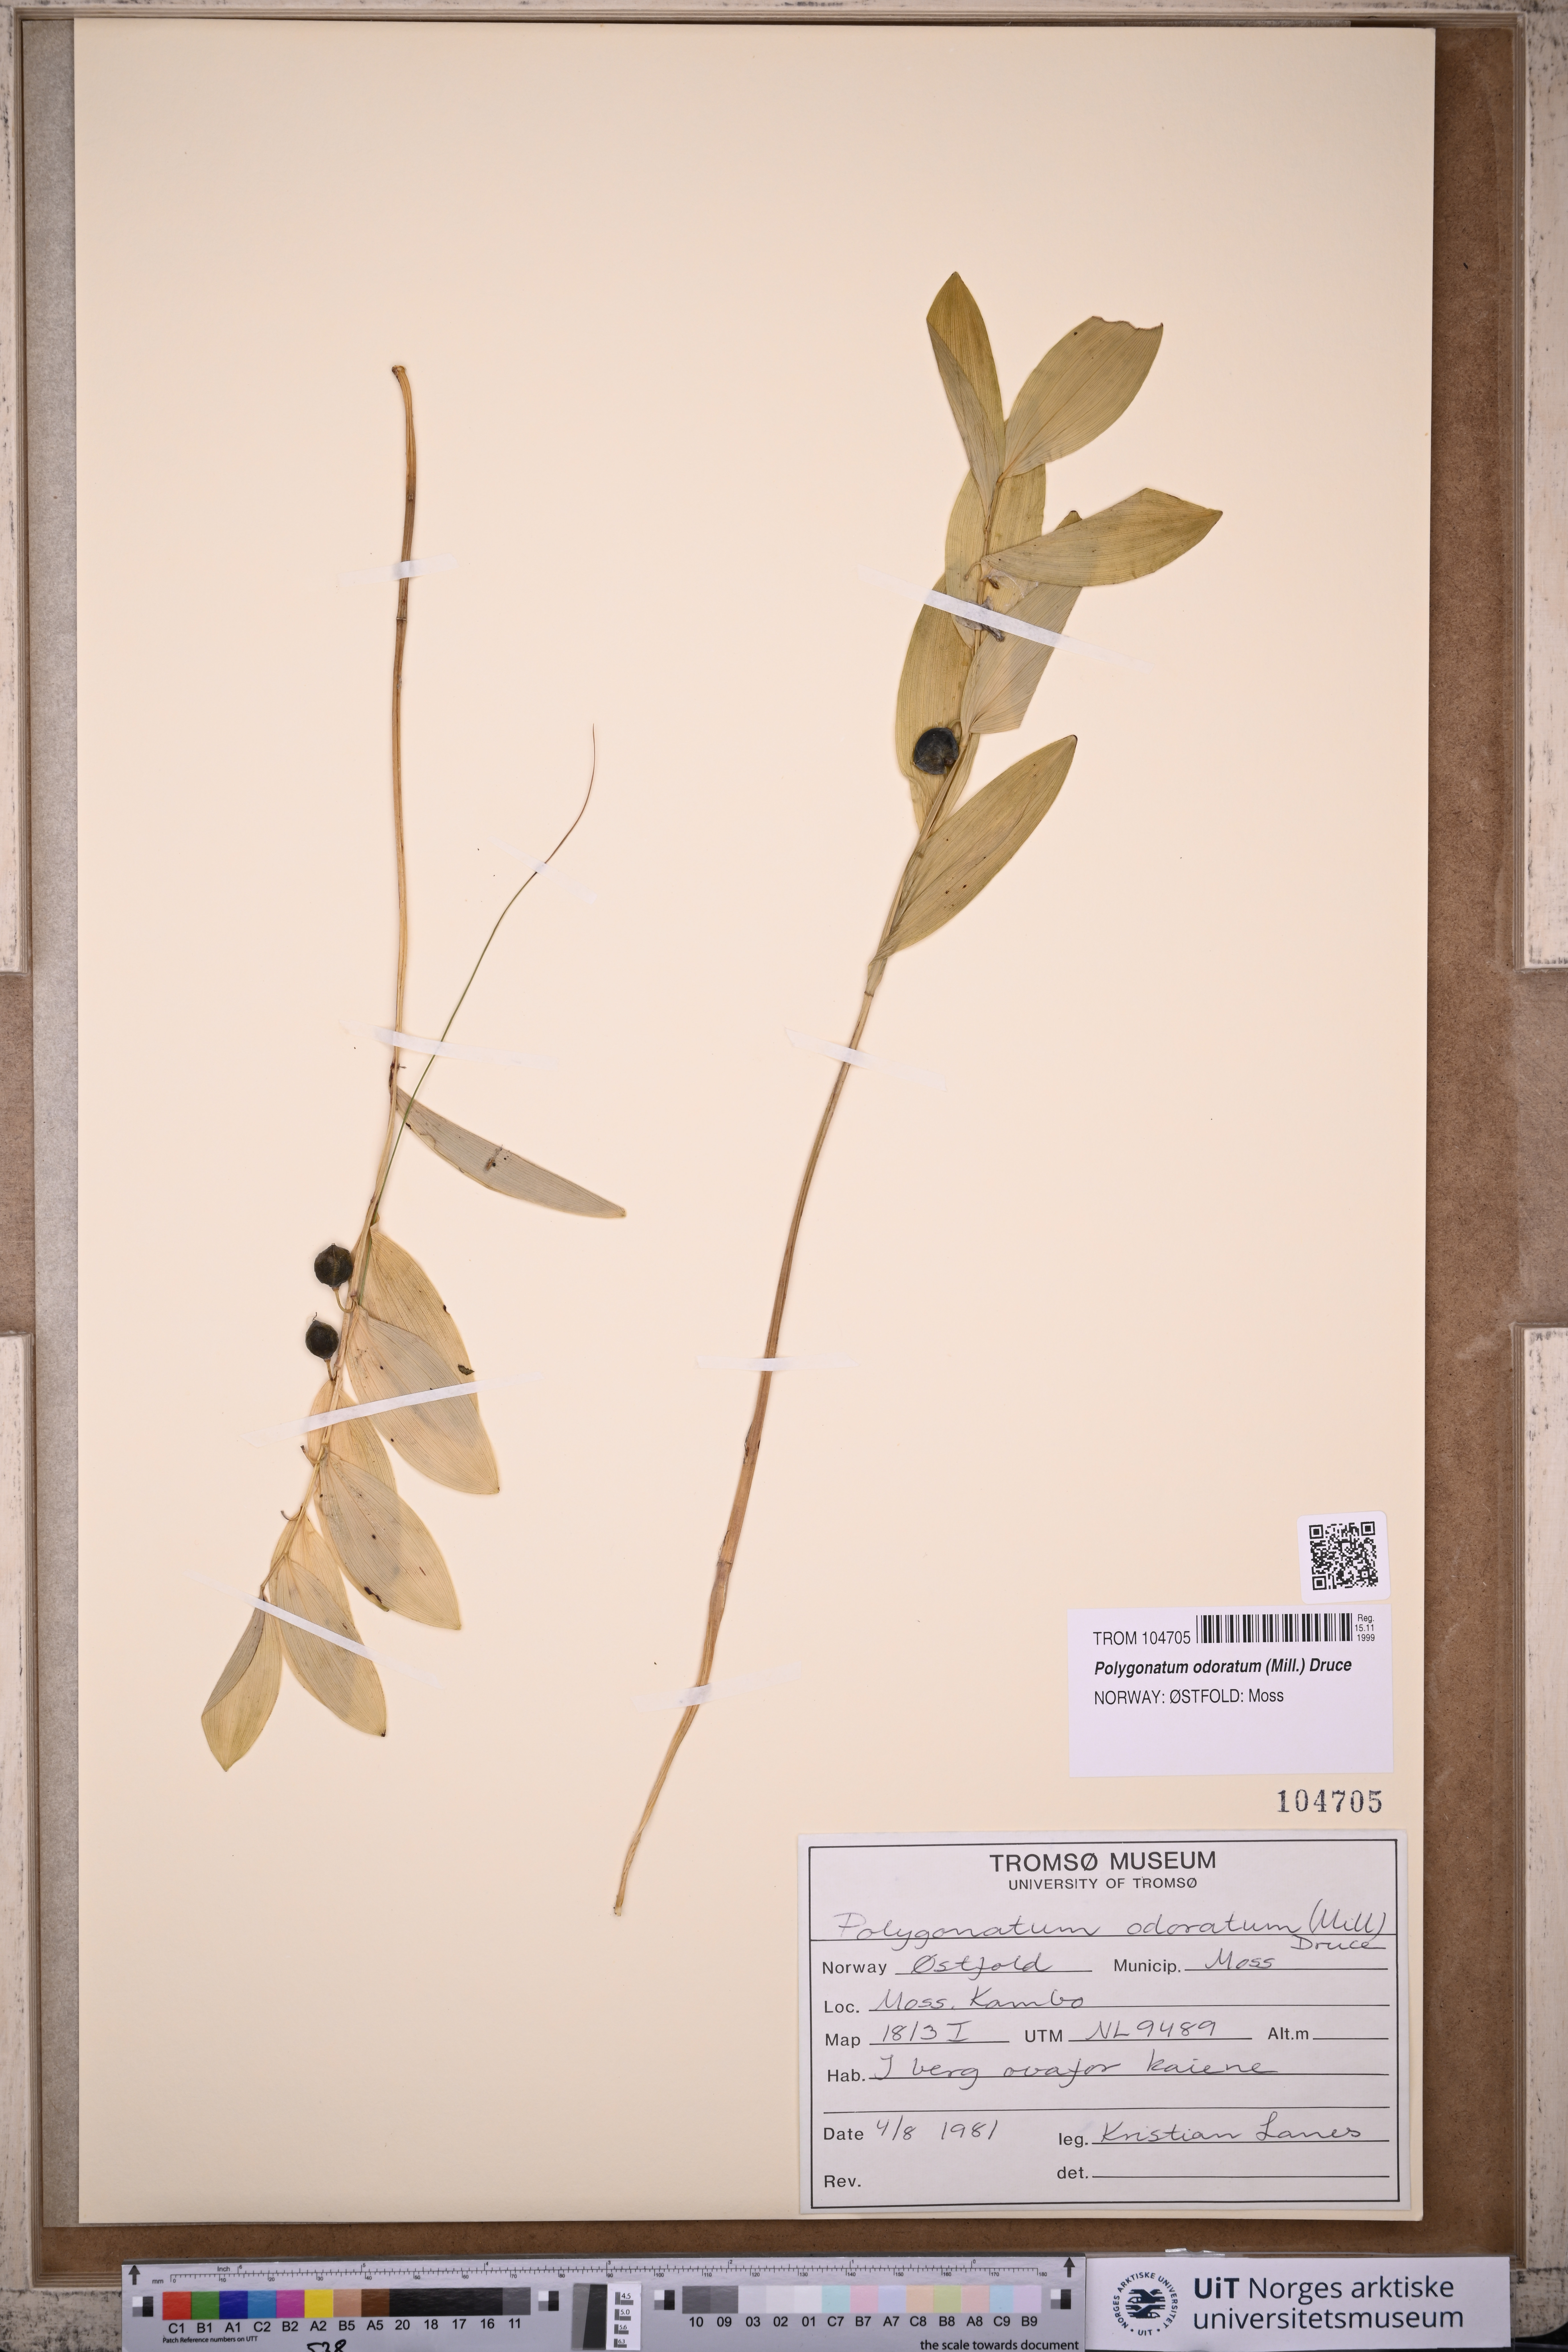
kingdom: Plantae
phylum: Tracheophyta
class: Liliopsida
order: Asparagales
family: Asparagaceae
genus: Polygonatum
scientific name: Polygonatum odoratum
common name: Angular solomon's-seal
